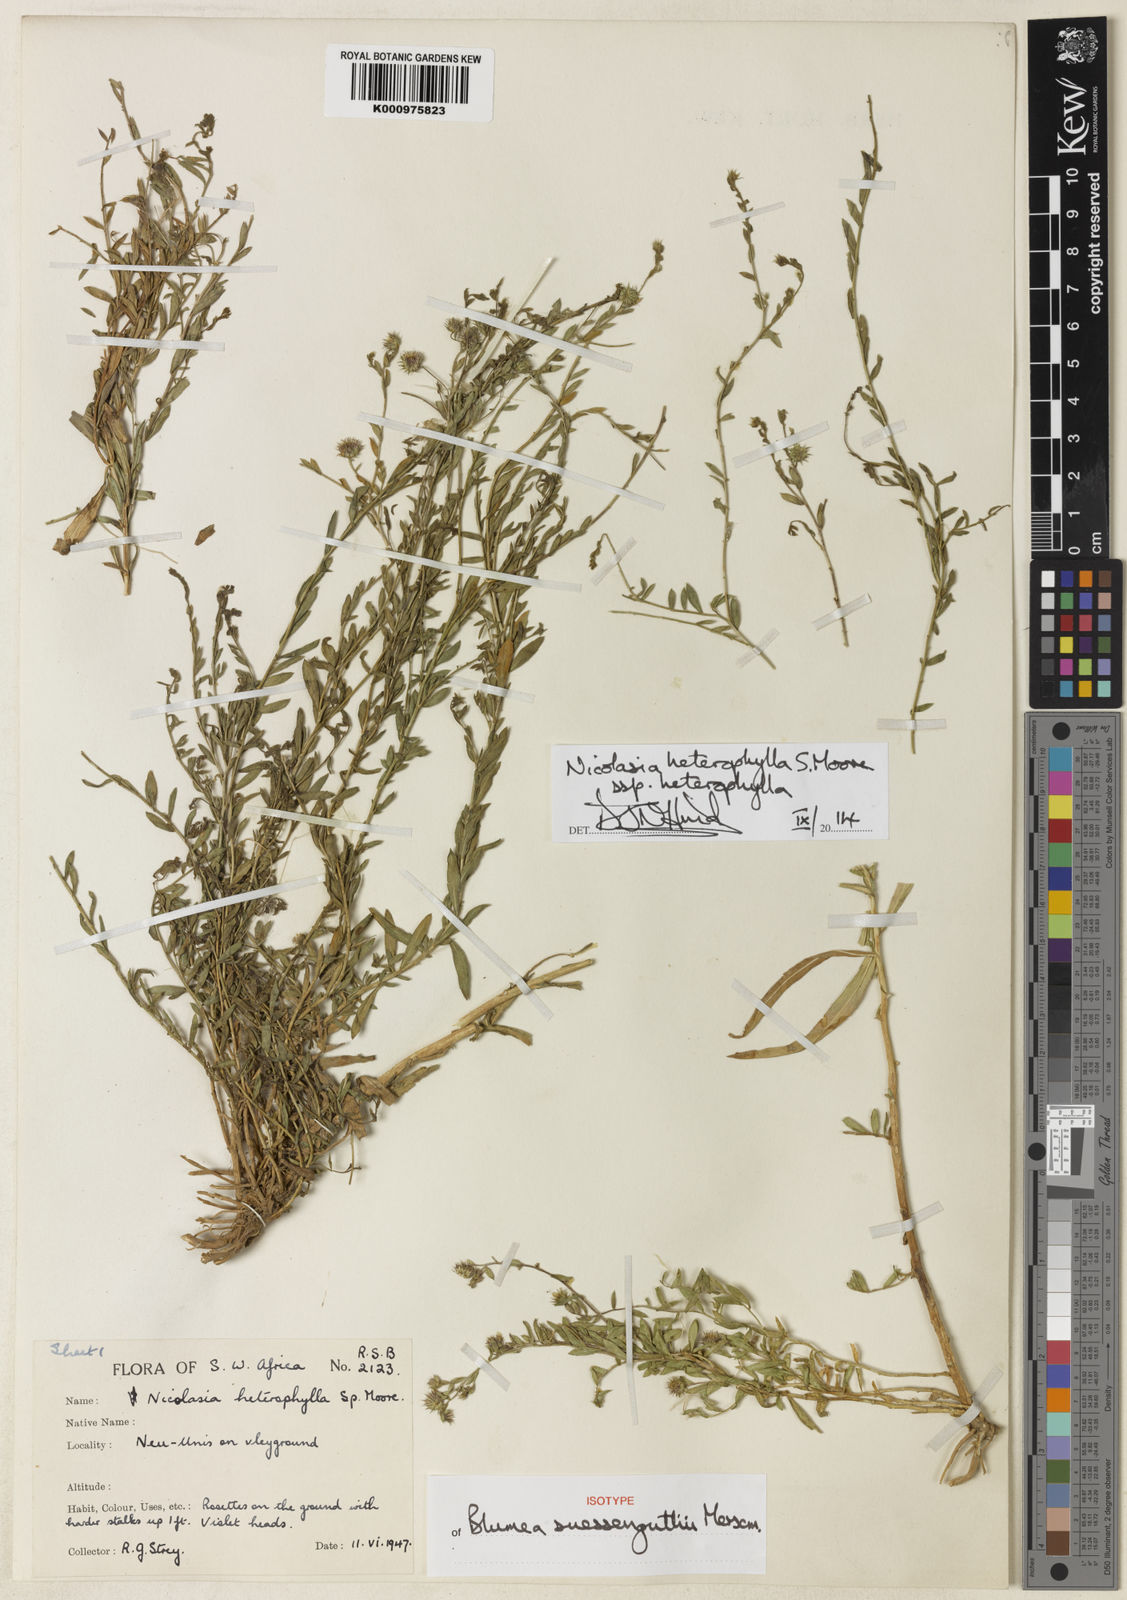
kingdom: Plantae
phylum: Tracheophyta
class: Magnoliopsida
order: Asterales
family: Asteraceae
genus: Nicolasia
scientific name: Nicolasia heterophylla
